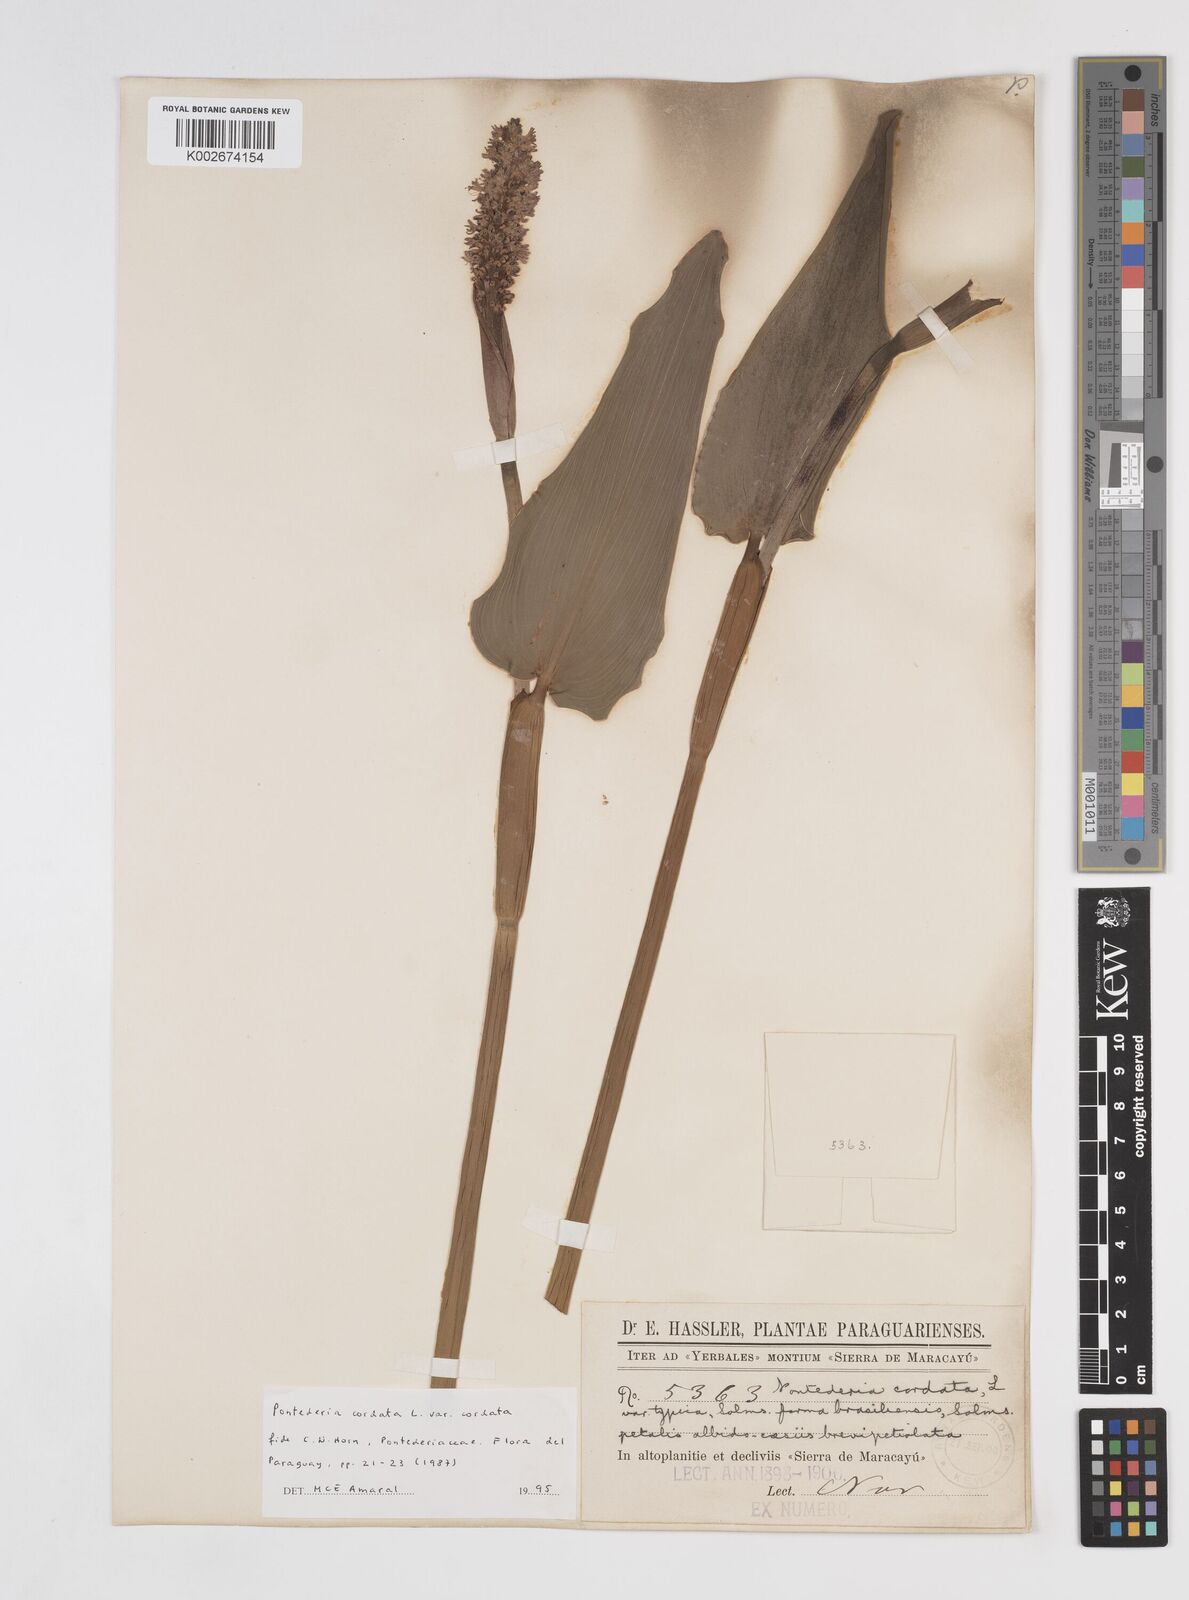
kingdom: Plantae
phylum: Tracheophyta
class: Liliopsida
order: Commelinales
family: Pontederiaceae
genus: Pontederia
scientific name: Pontederia
